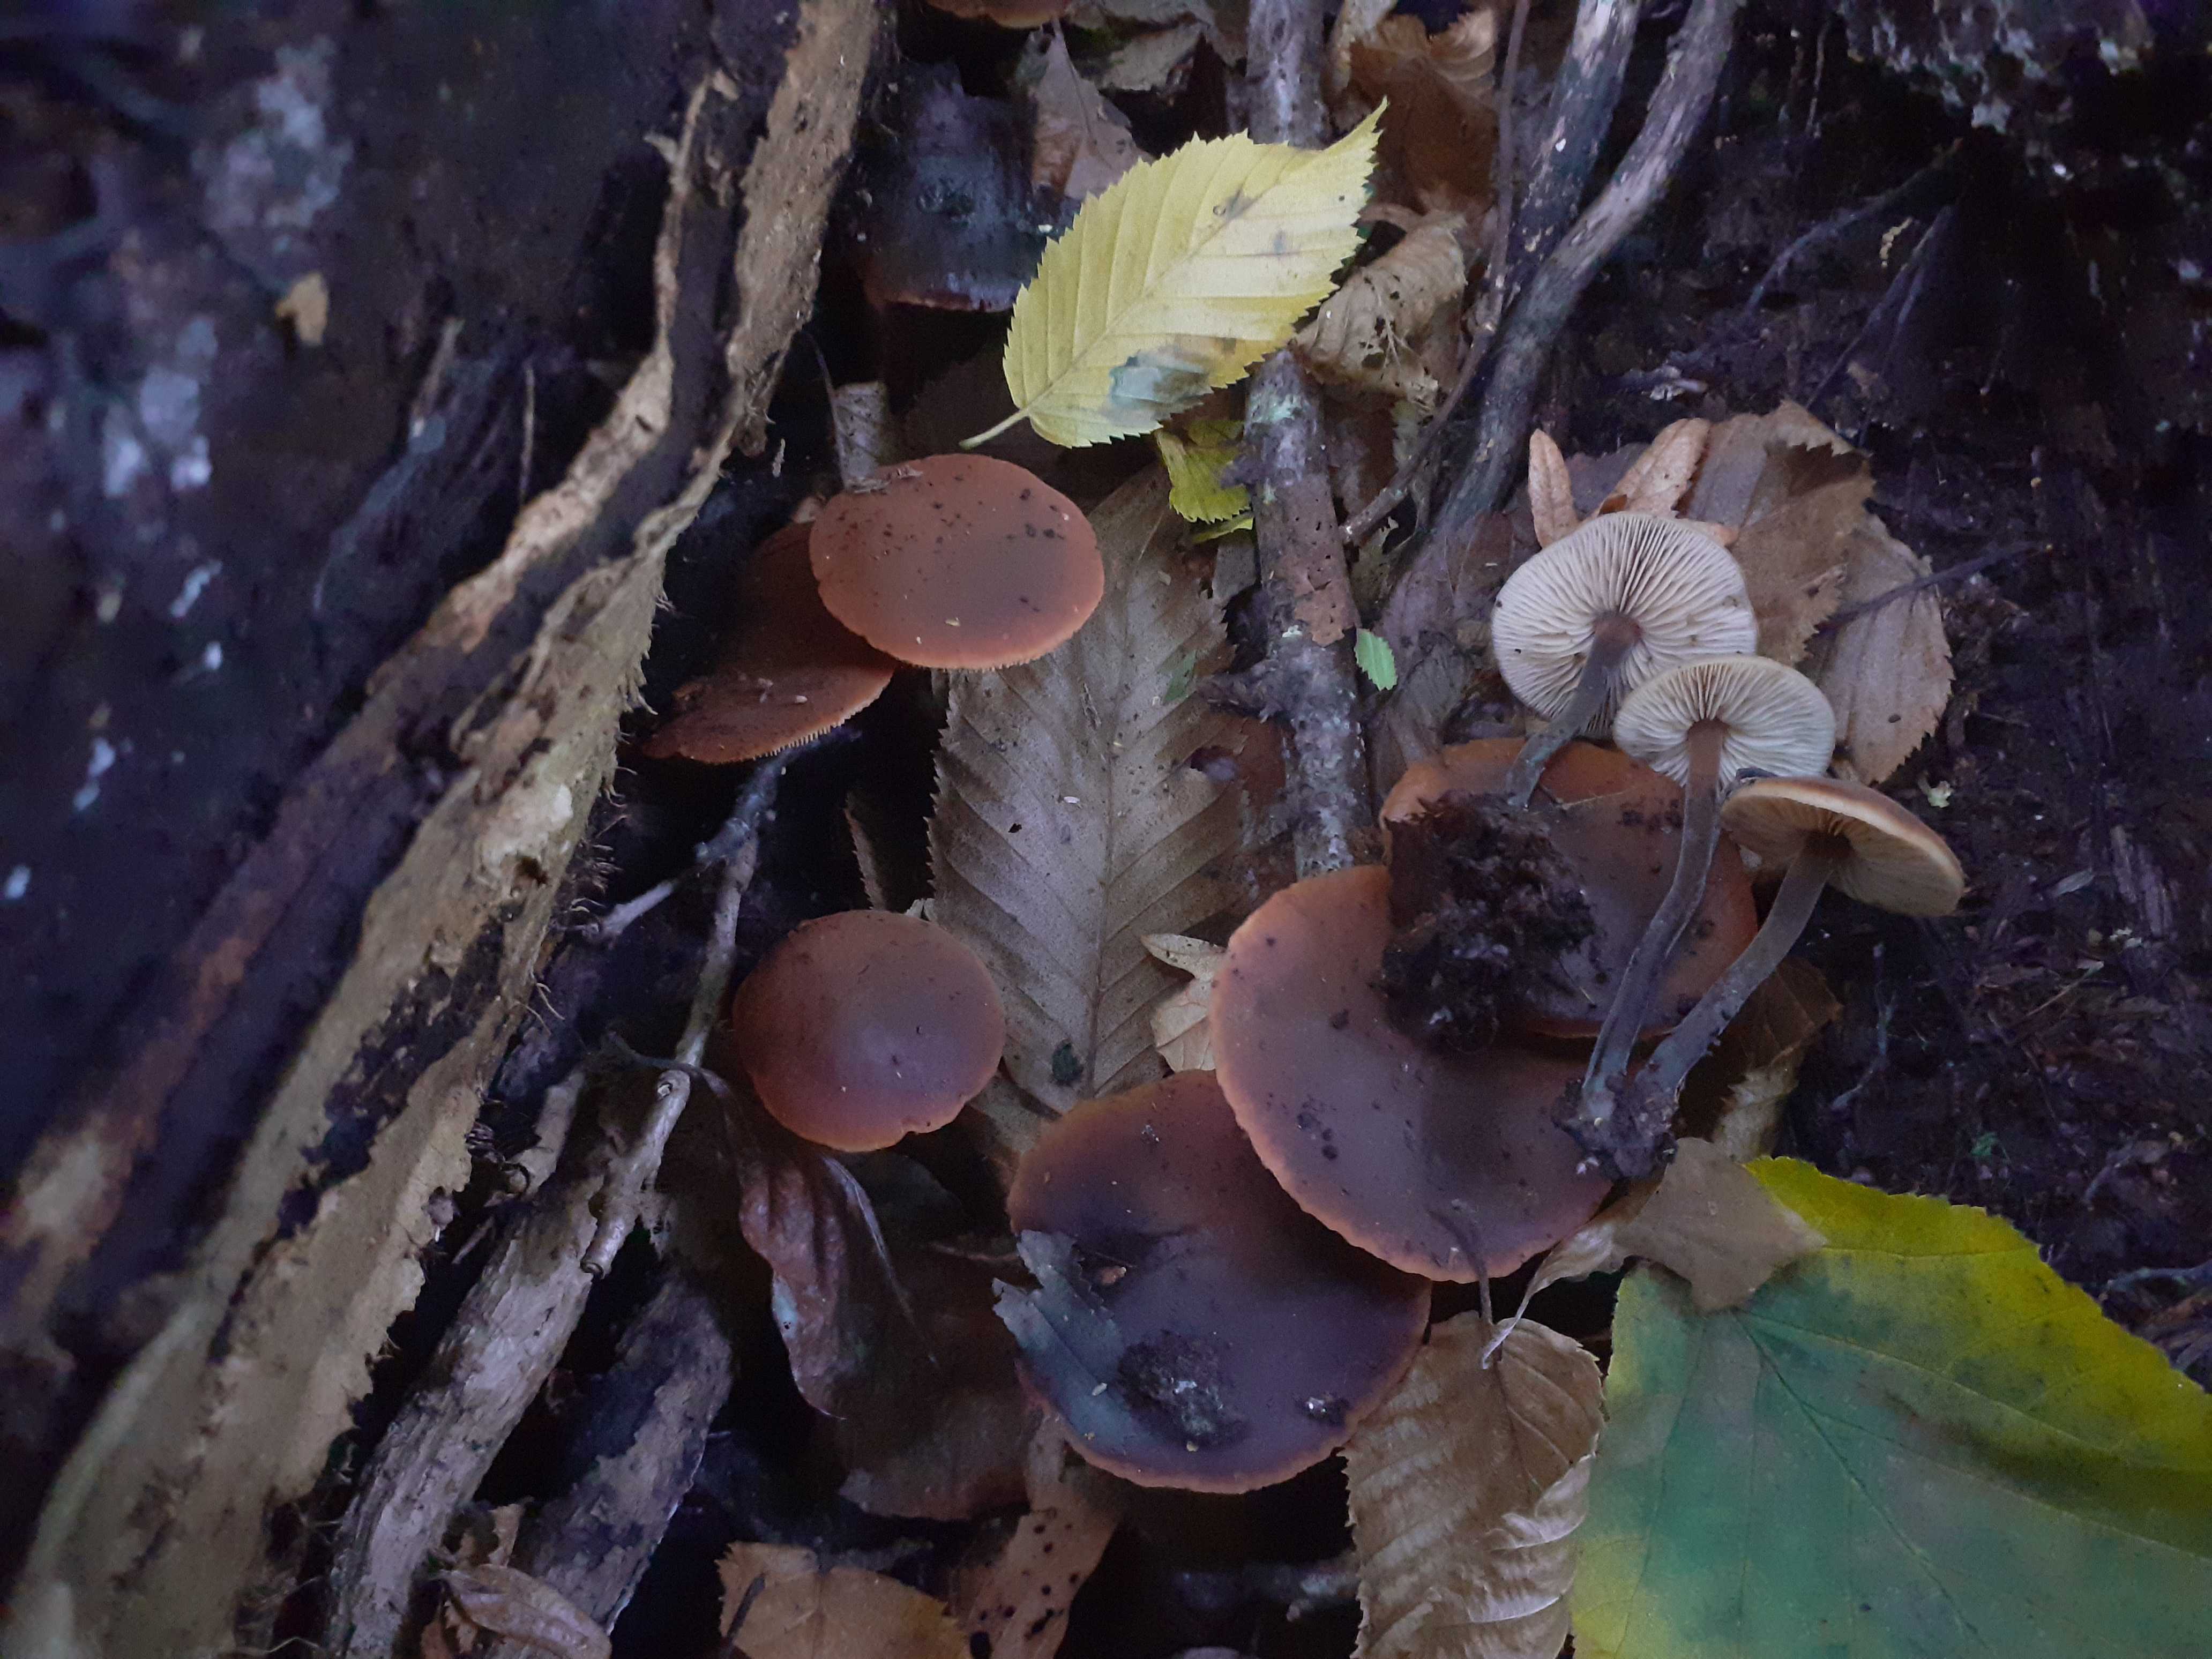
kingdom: Fungi
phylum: Basidiomycota
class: Agaricomycetes
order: Agaricales
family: Macrocystidiaceae
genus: Macrocystidia
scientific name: Macrocystidia cucumis
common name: agurkehat
